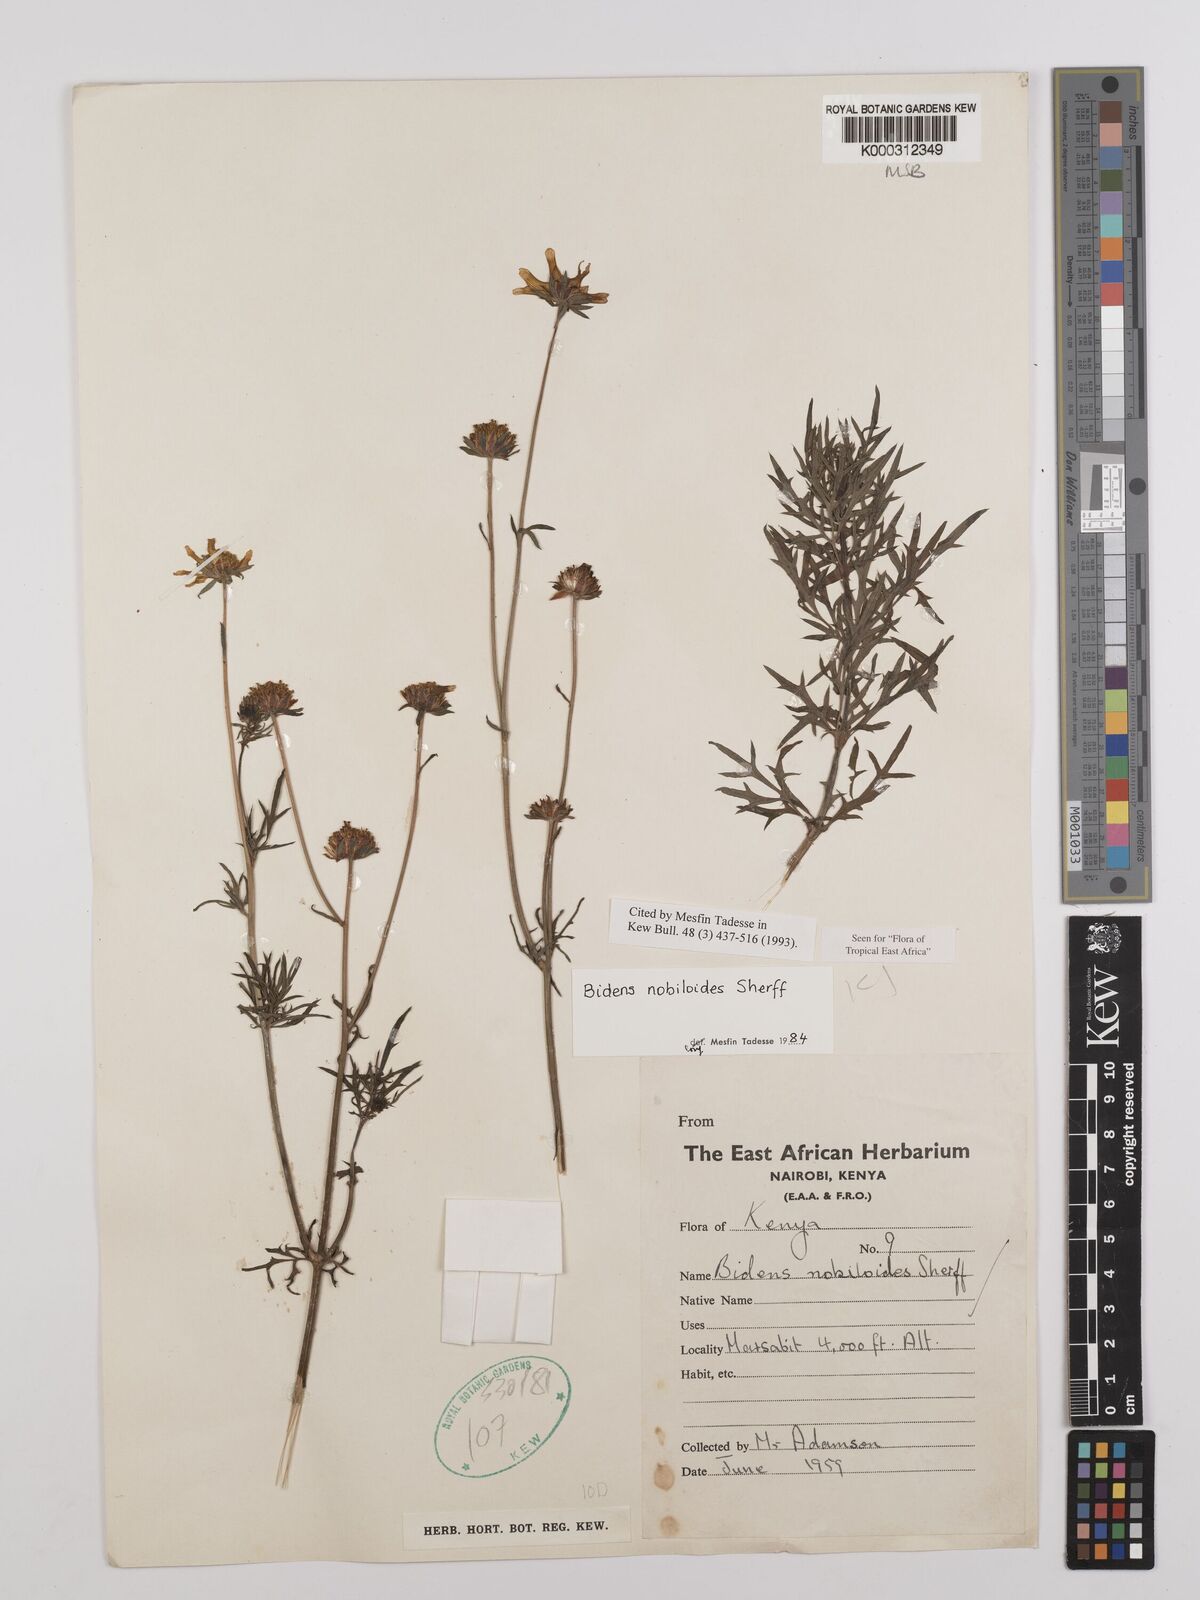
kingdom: Plantae
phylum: Tracheophyta
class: Magnoliopsida
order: Asterales
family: Asteraceae
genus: Bidens
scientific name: Bidens
